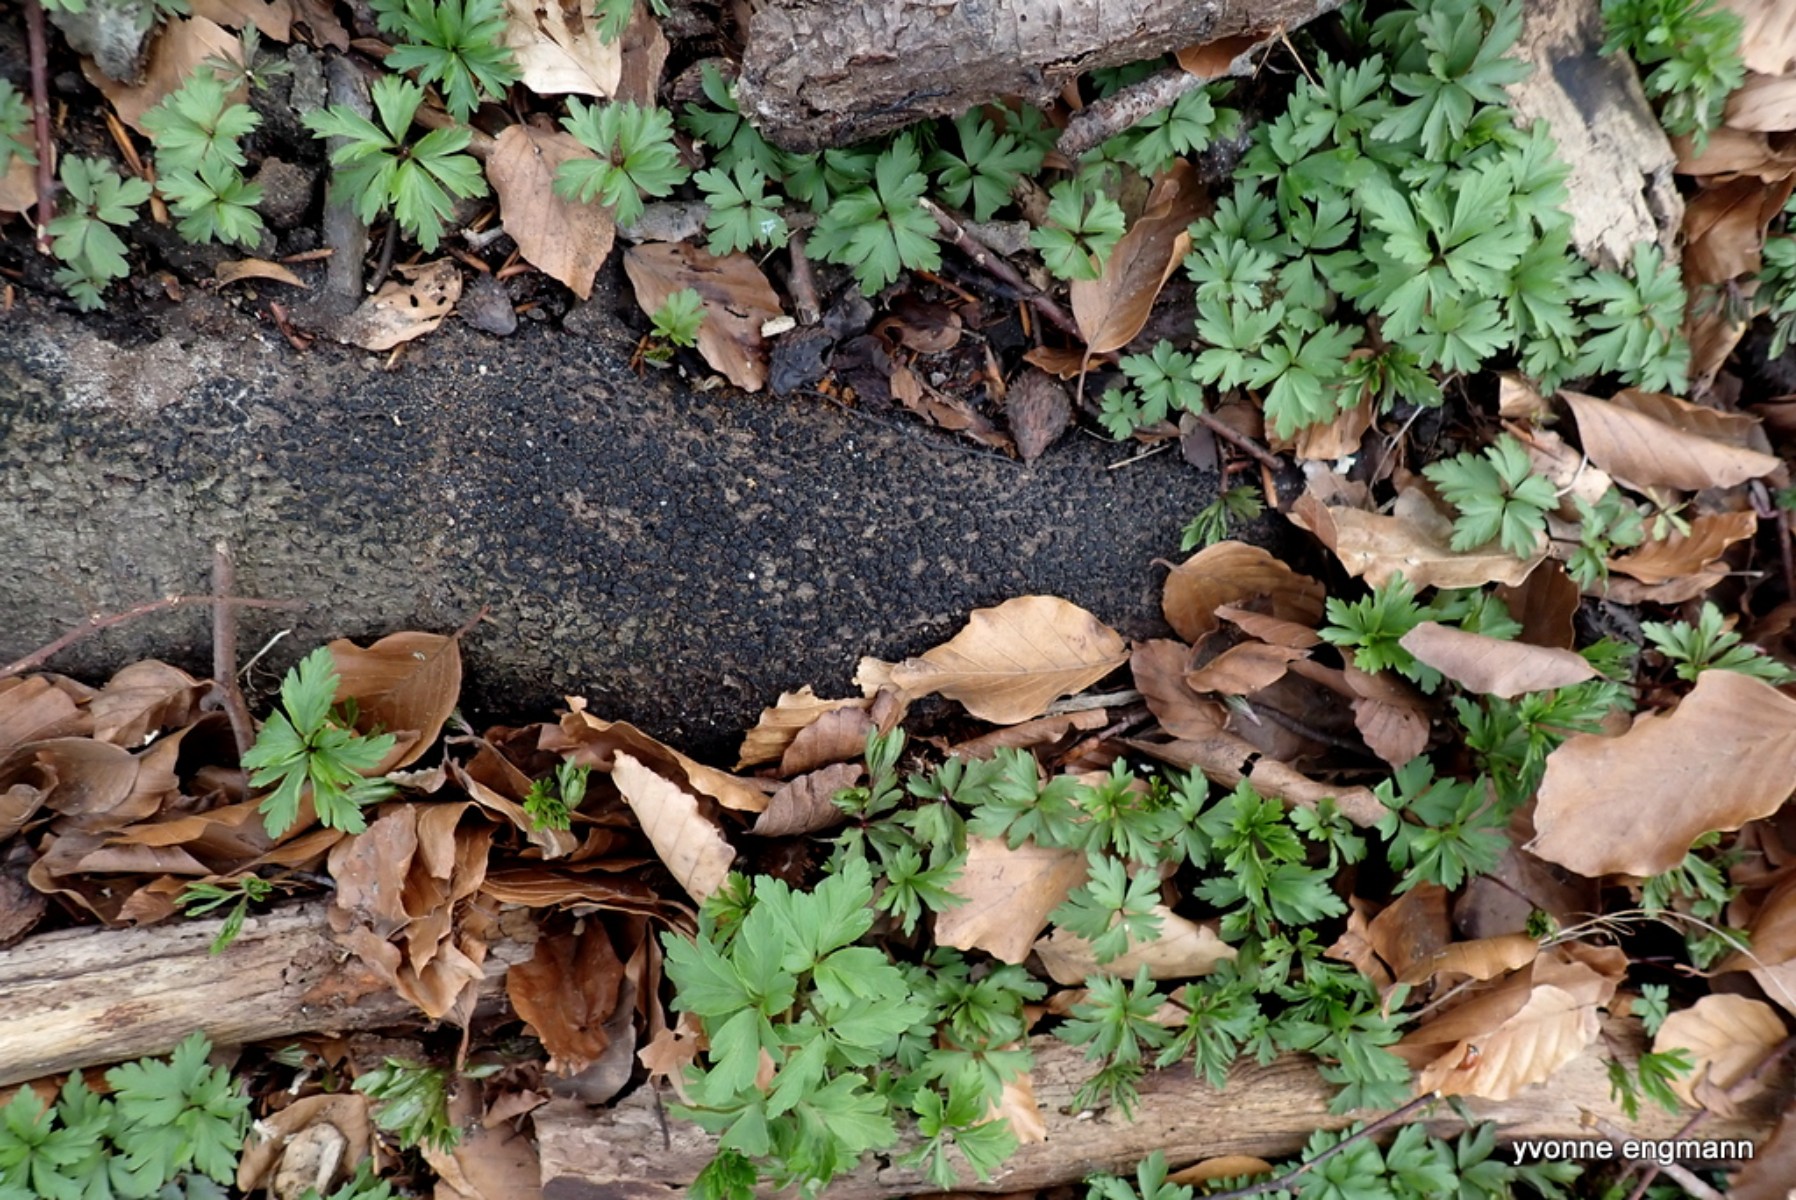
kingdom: Fungi
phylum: Ascomycota
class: Sordariomycetes
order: Xylariales
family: Melogrammataceae
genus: Melogramma
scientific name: Melogramma spiniferum
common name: bøgefod-kulhals
